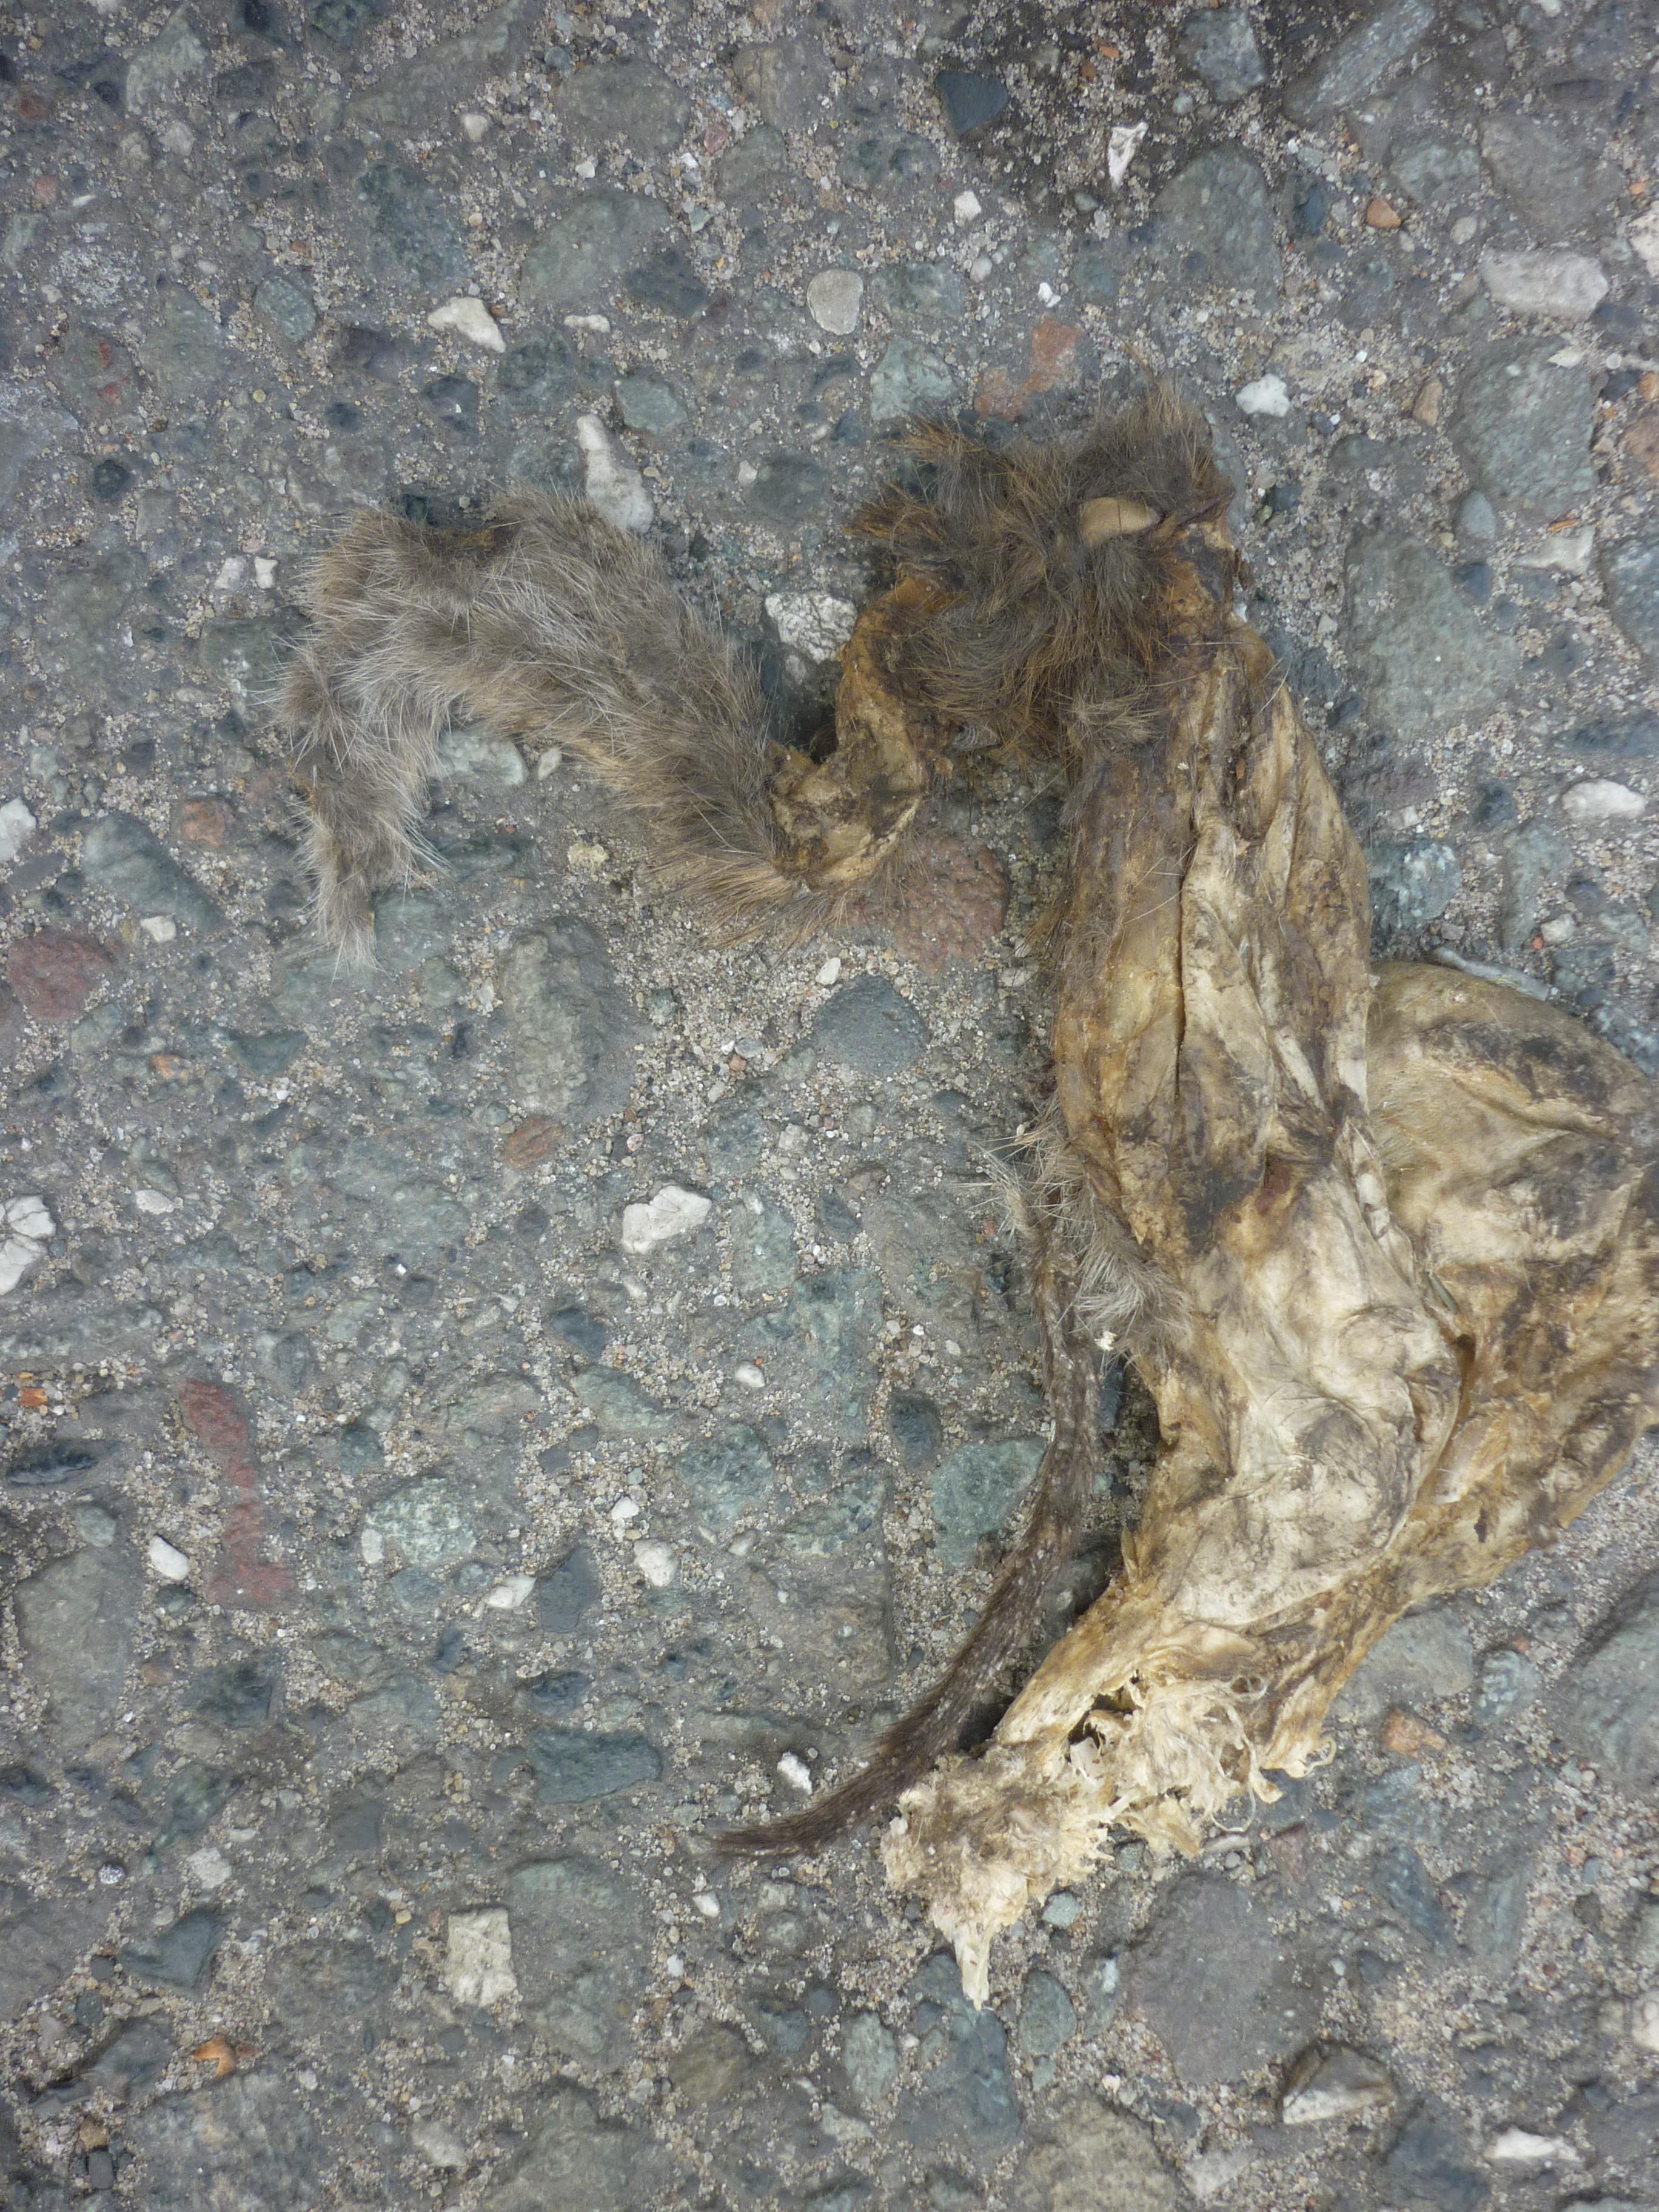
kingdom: Animalia
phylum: Chordata
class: Mammalia
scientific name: Mammalia
